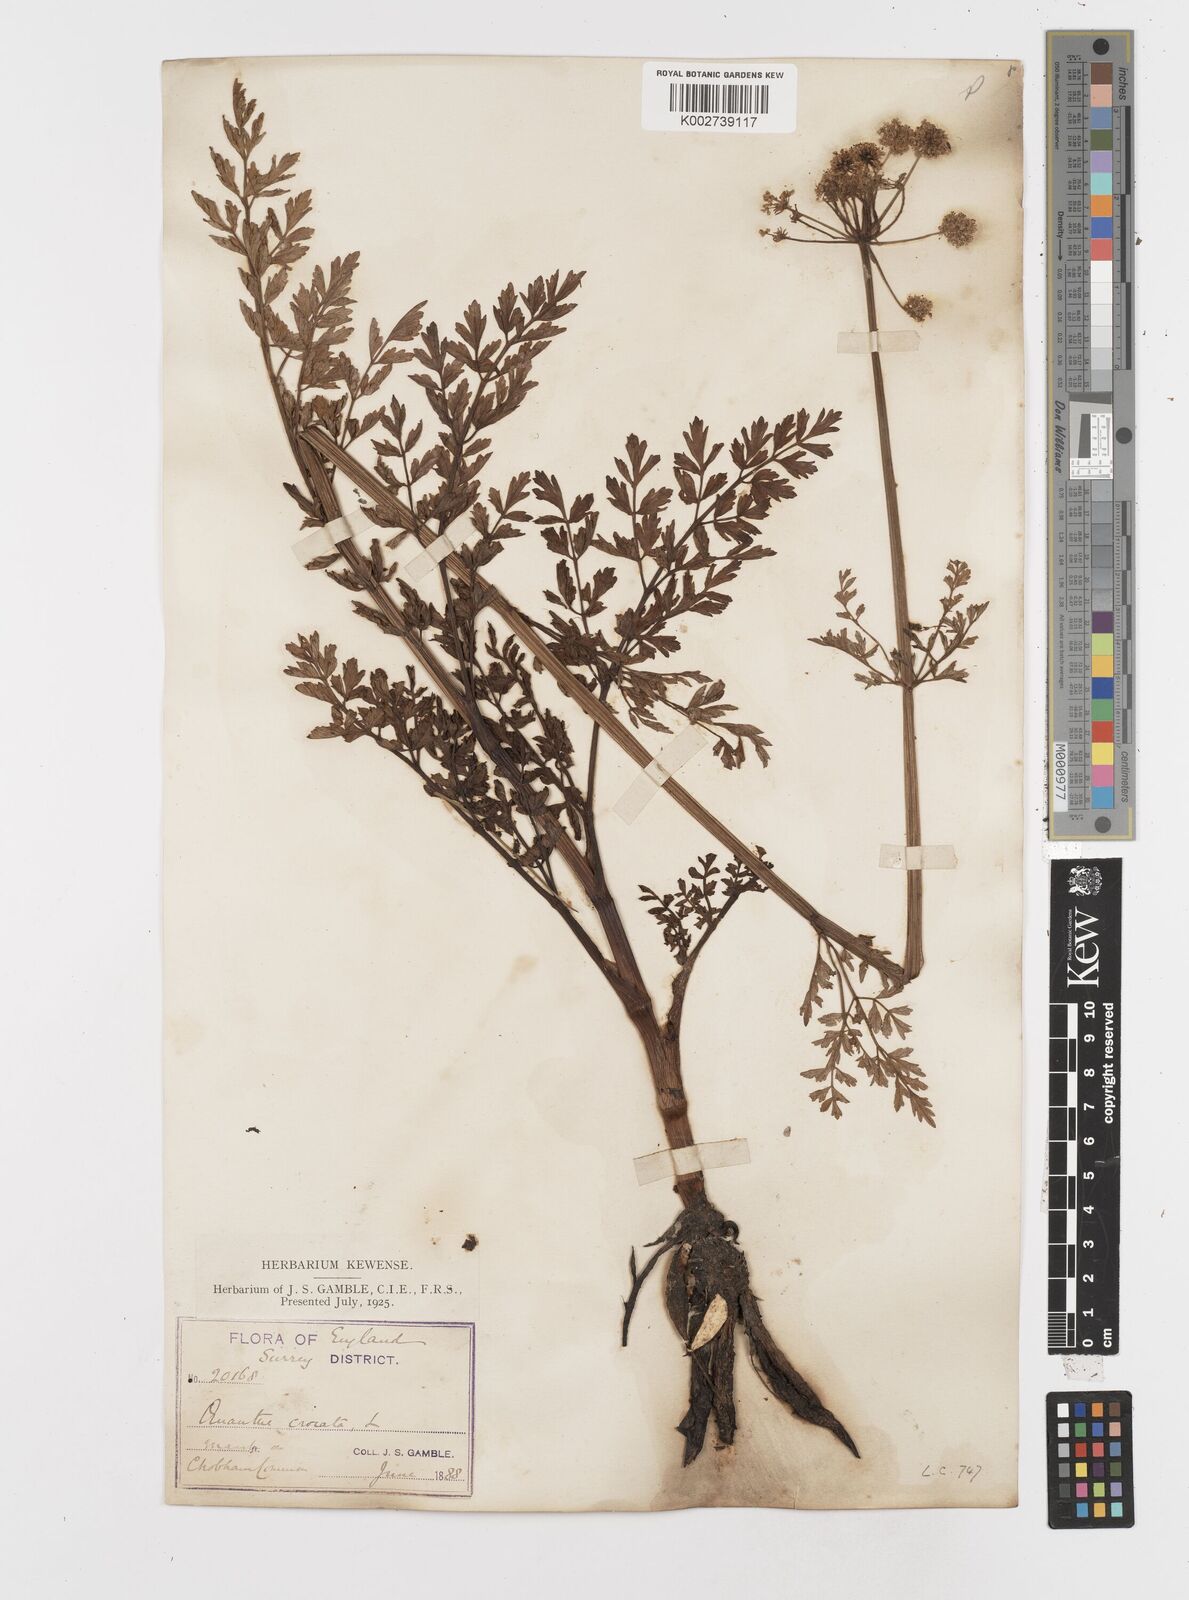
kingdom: Plantae
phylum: Tracheophyta
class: Magnoliopsida
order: Apiales
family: Apiaceae
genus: Oenanthe
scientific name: Oenanthe crocata
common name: Hemlock water-dropwort
